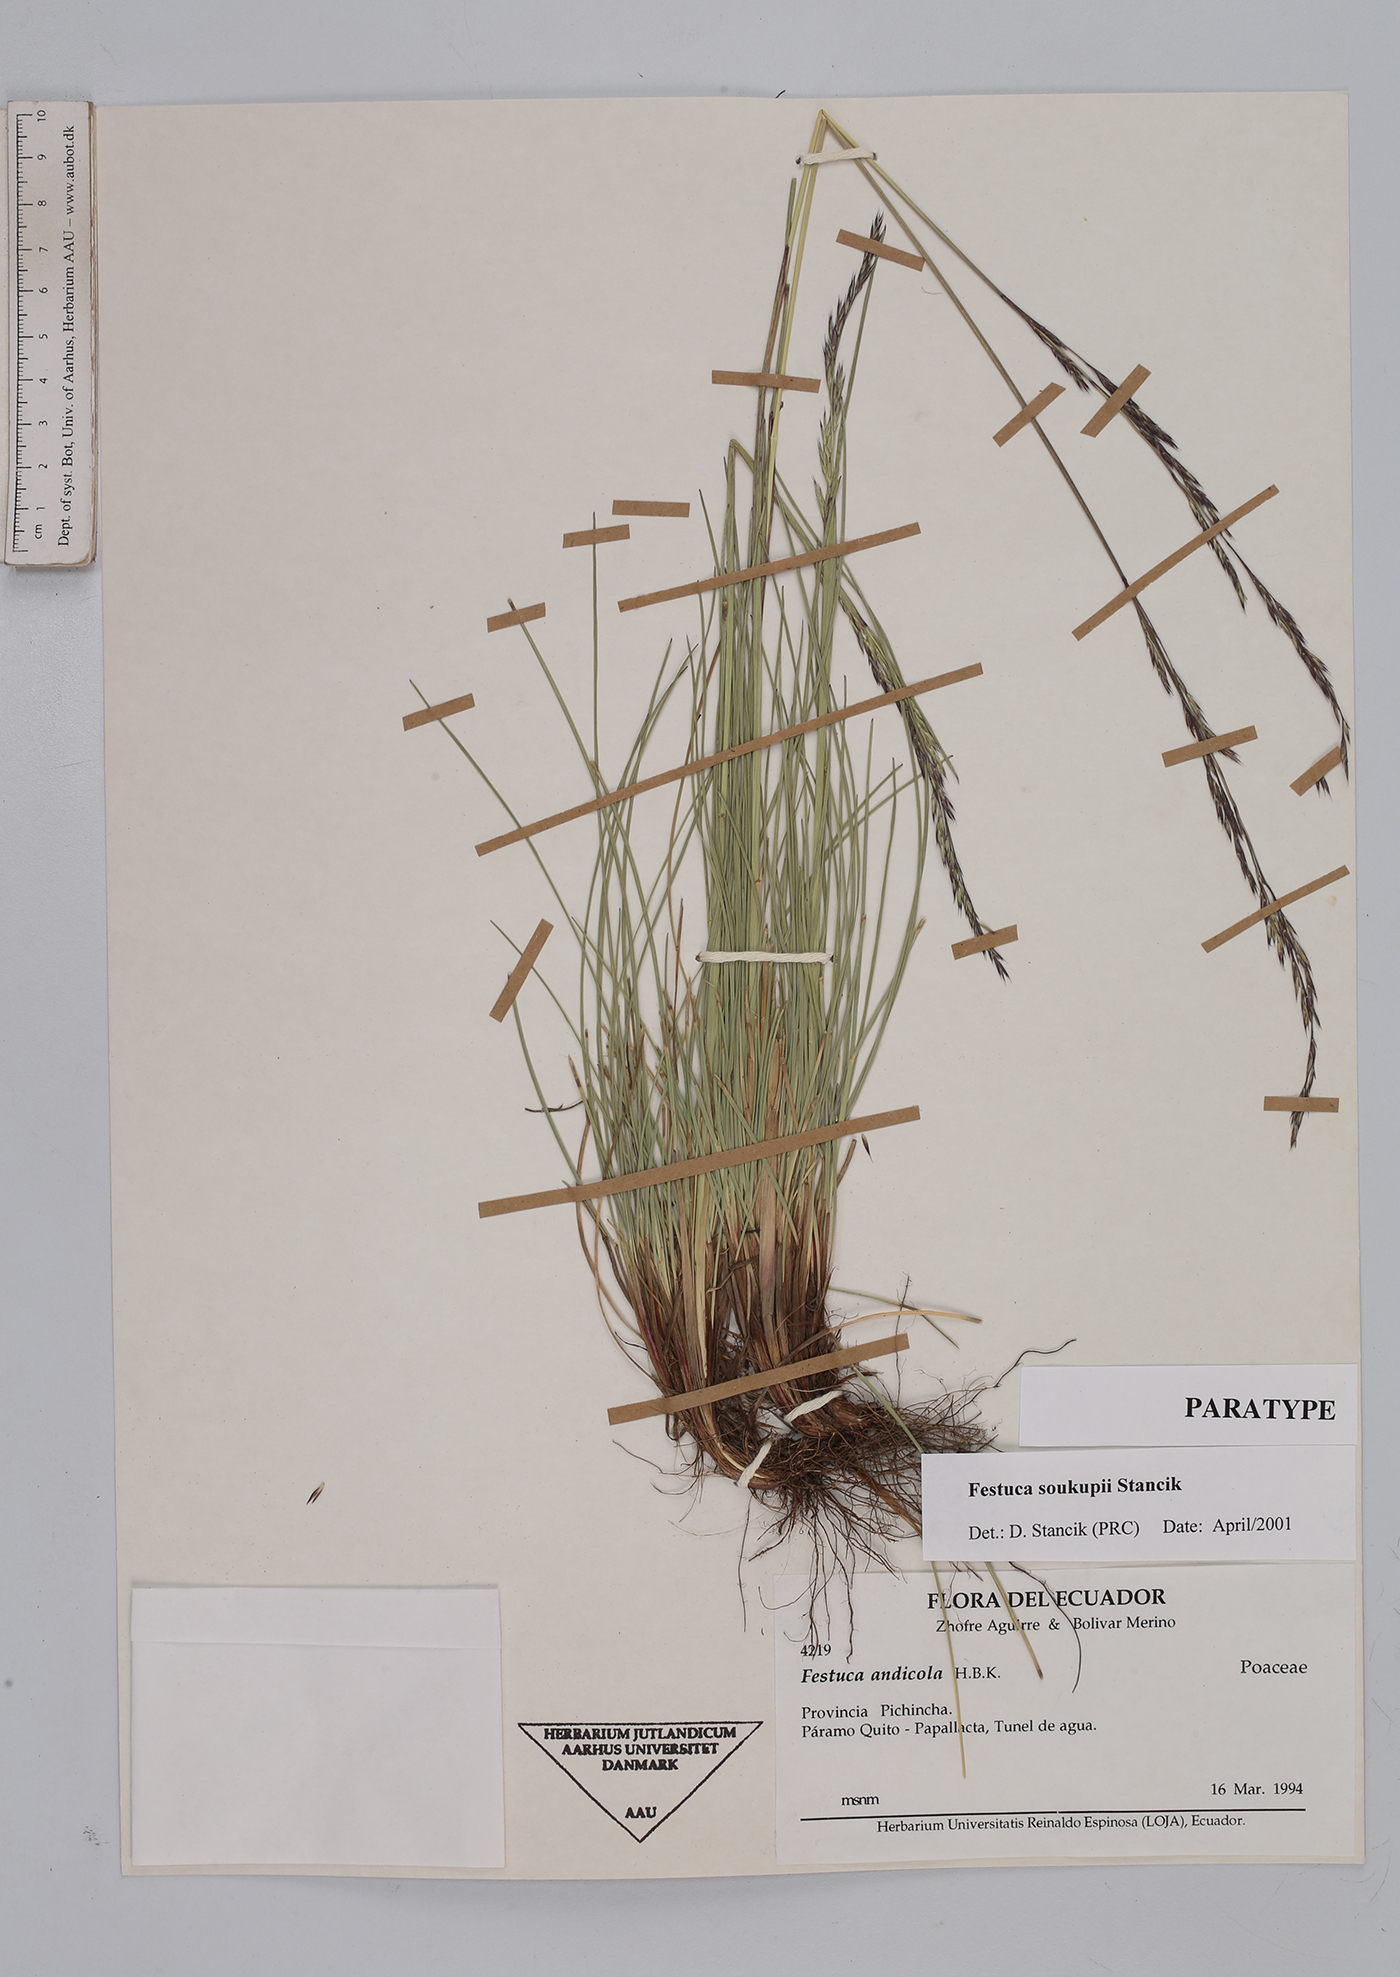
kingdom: Plantae
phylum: Tracheophyta
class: Liliopsida
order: Poales
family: Poaceae
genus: Festuca
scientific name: Festuca soukupii
